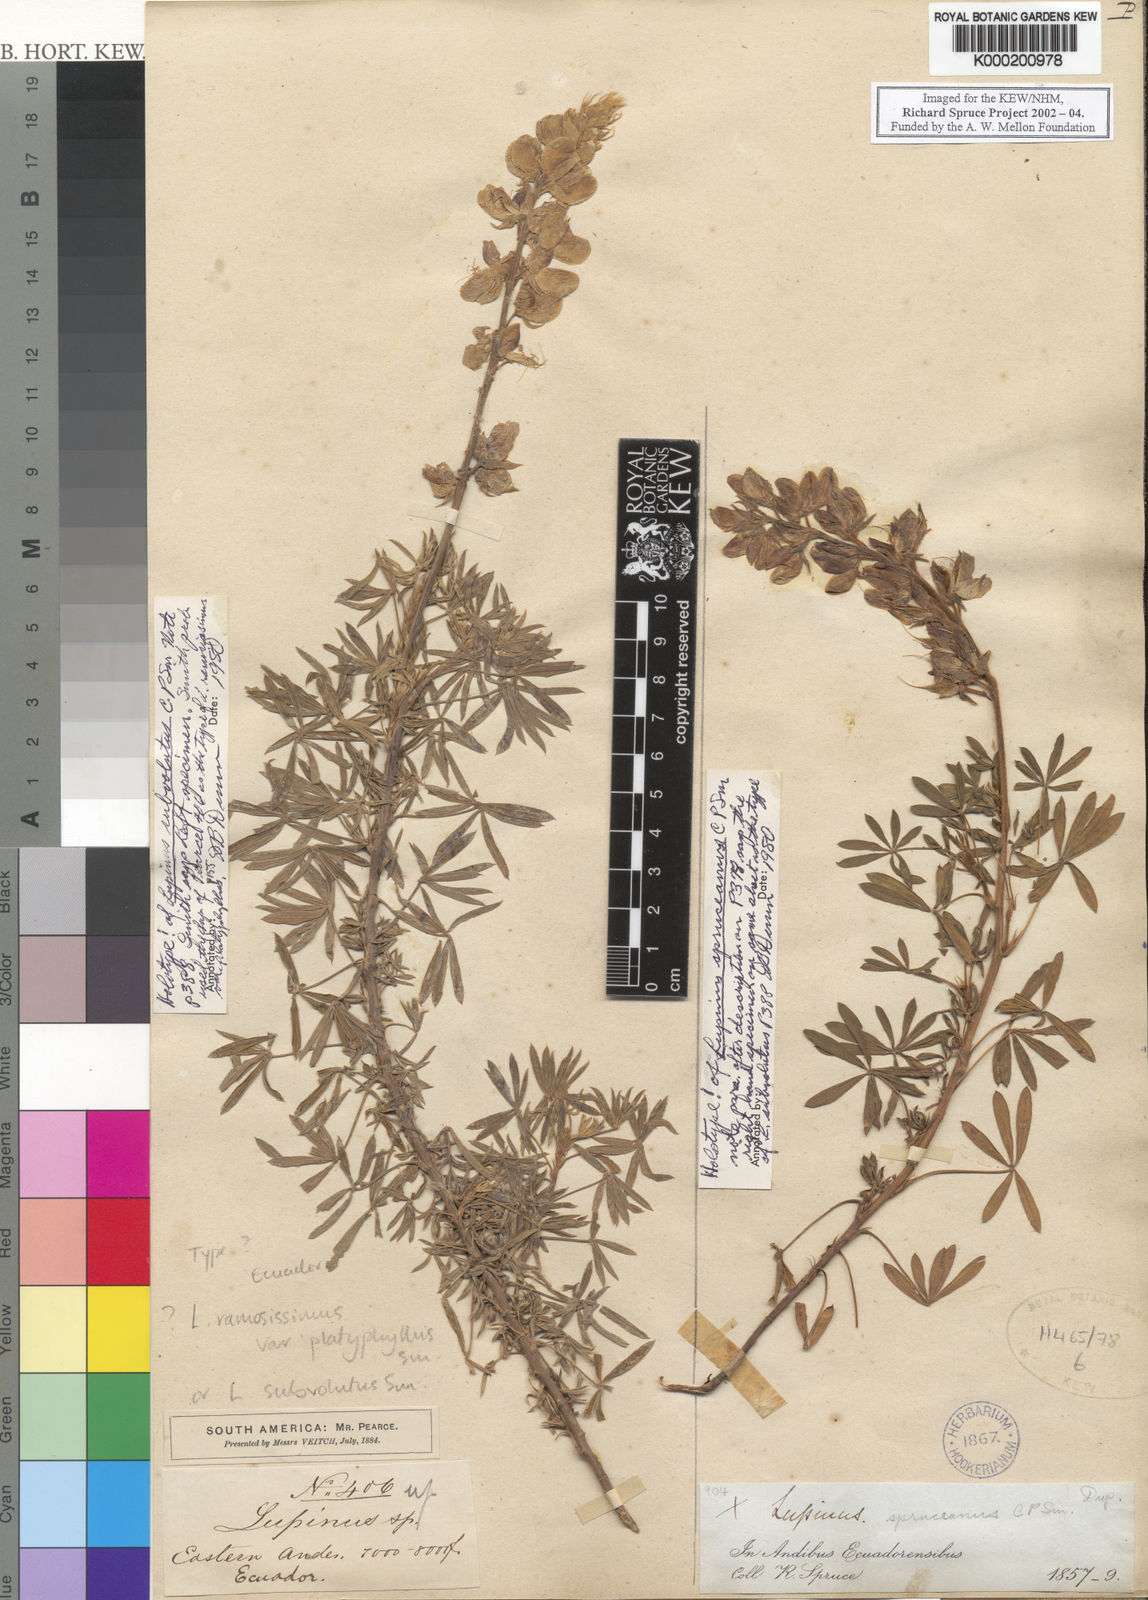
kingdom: Plantae
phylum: Tracheophyta
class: Magnoliopsida
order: Fabales
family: Fabaceae
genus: Lupinus
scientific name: Lupinus spruceanus
